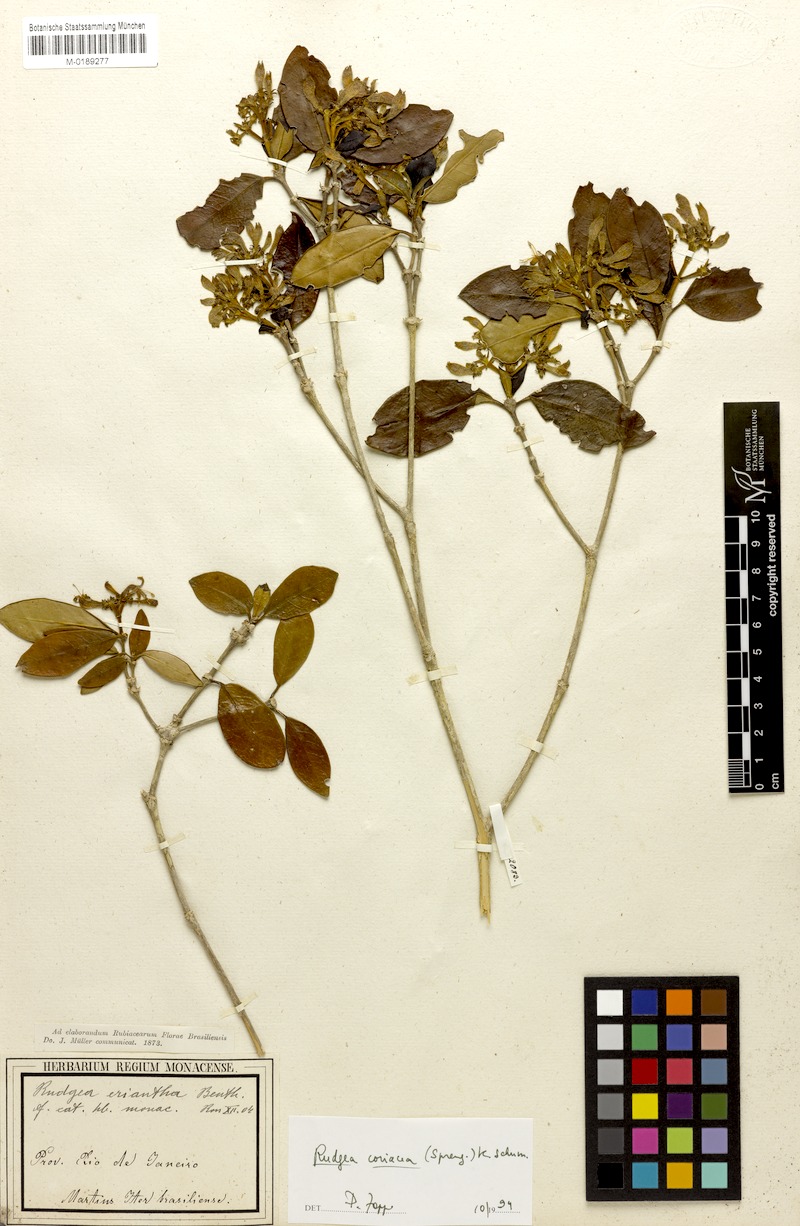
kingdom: Plantae
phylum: Tracheophyta
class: Magnoliopsida
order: Gentianales
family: Rubiaceae
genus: Rudgea
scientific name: Rudgea coriacea
